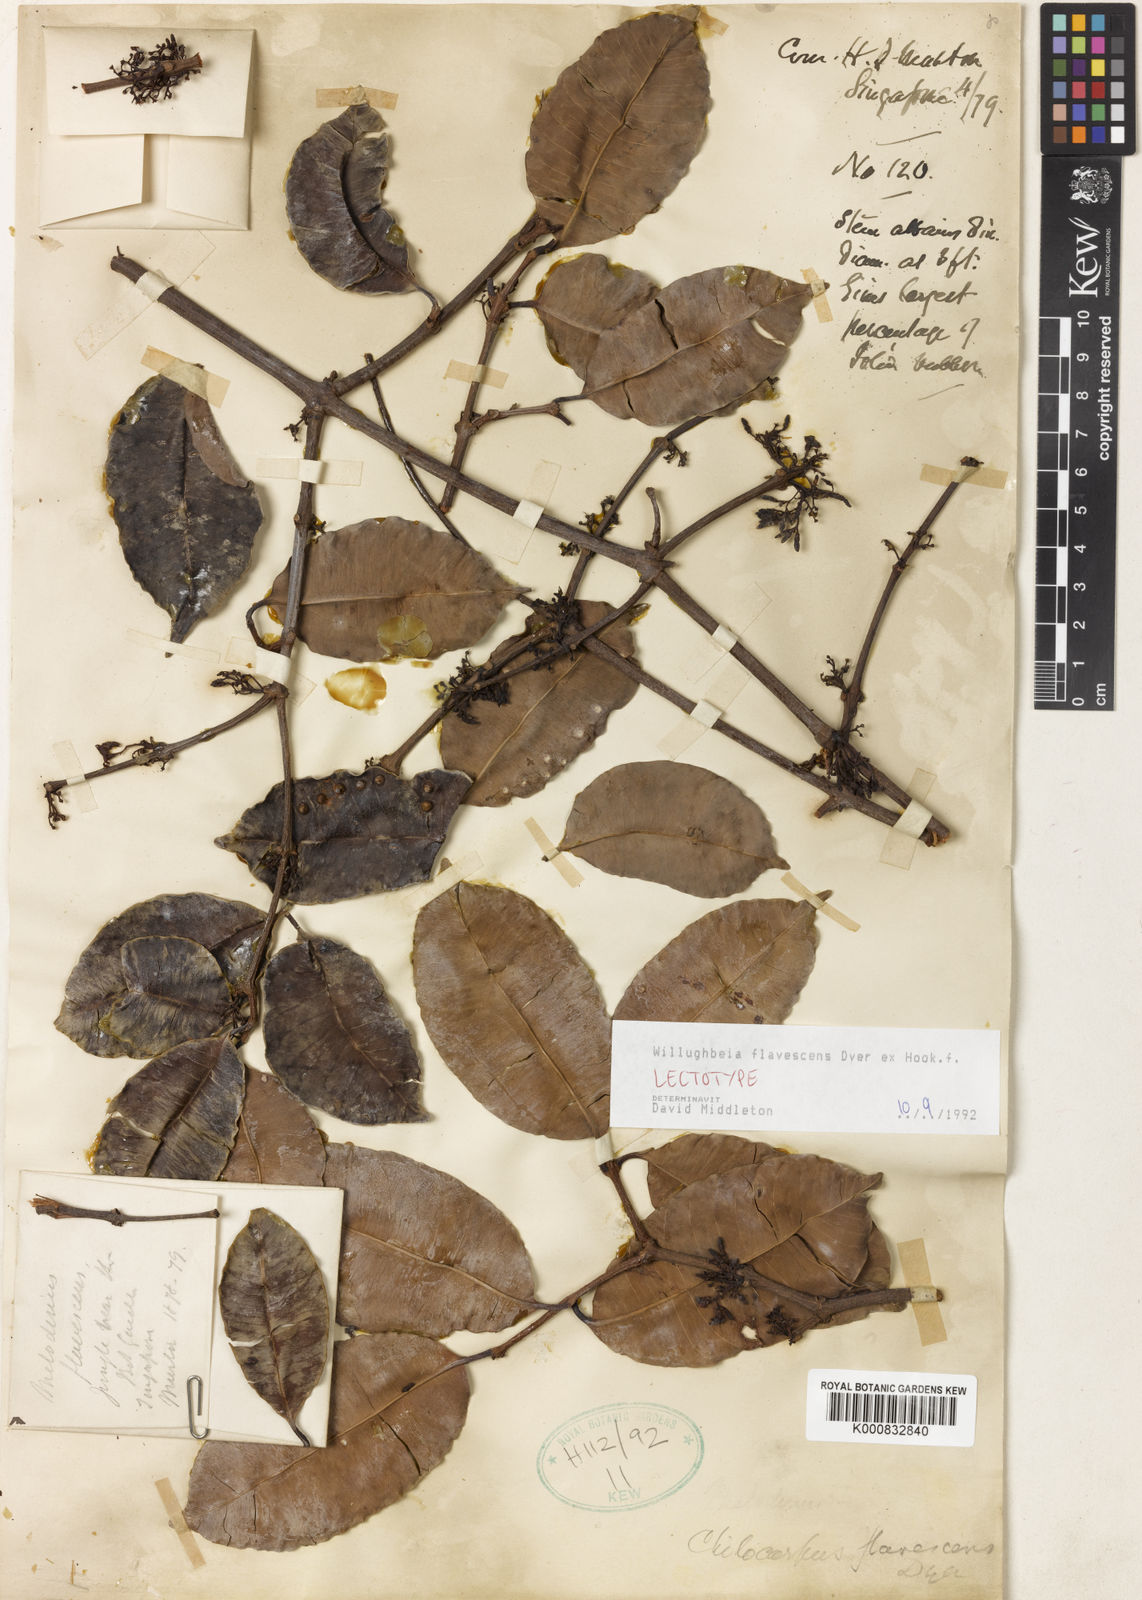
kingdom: Plantae
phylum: Tracheophyta
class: Magnoliopsida
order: Gentianales
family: Apocynaceae
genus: Willughbeia
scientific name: Willughbeia flavescens
